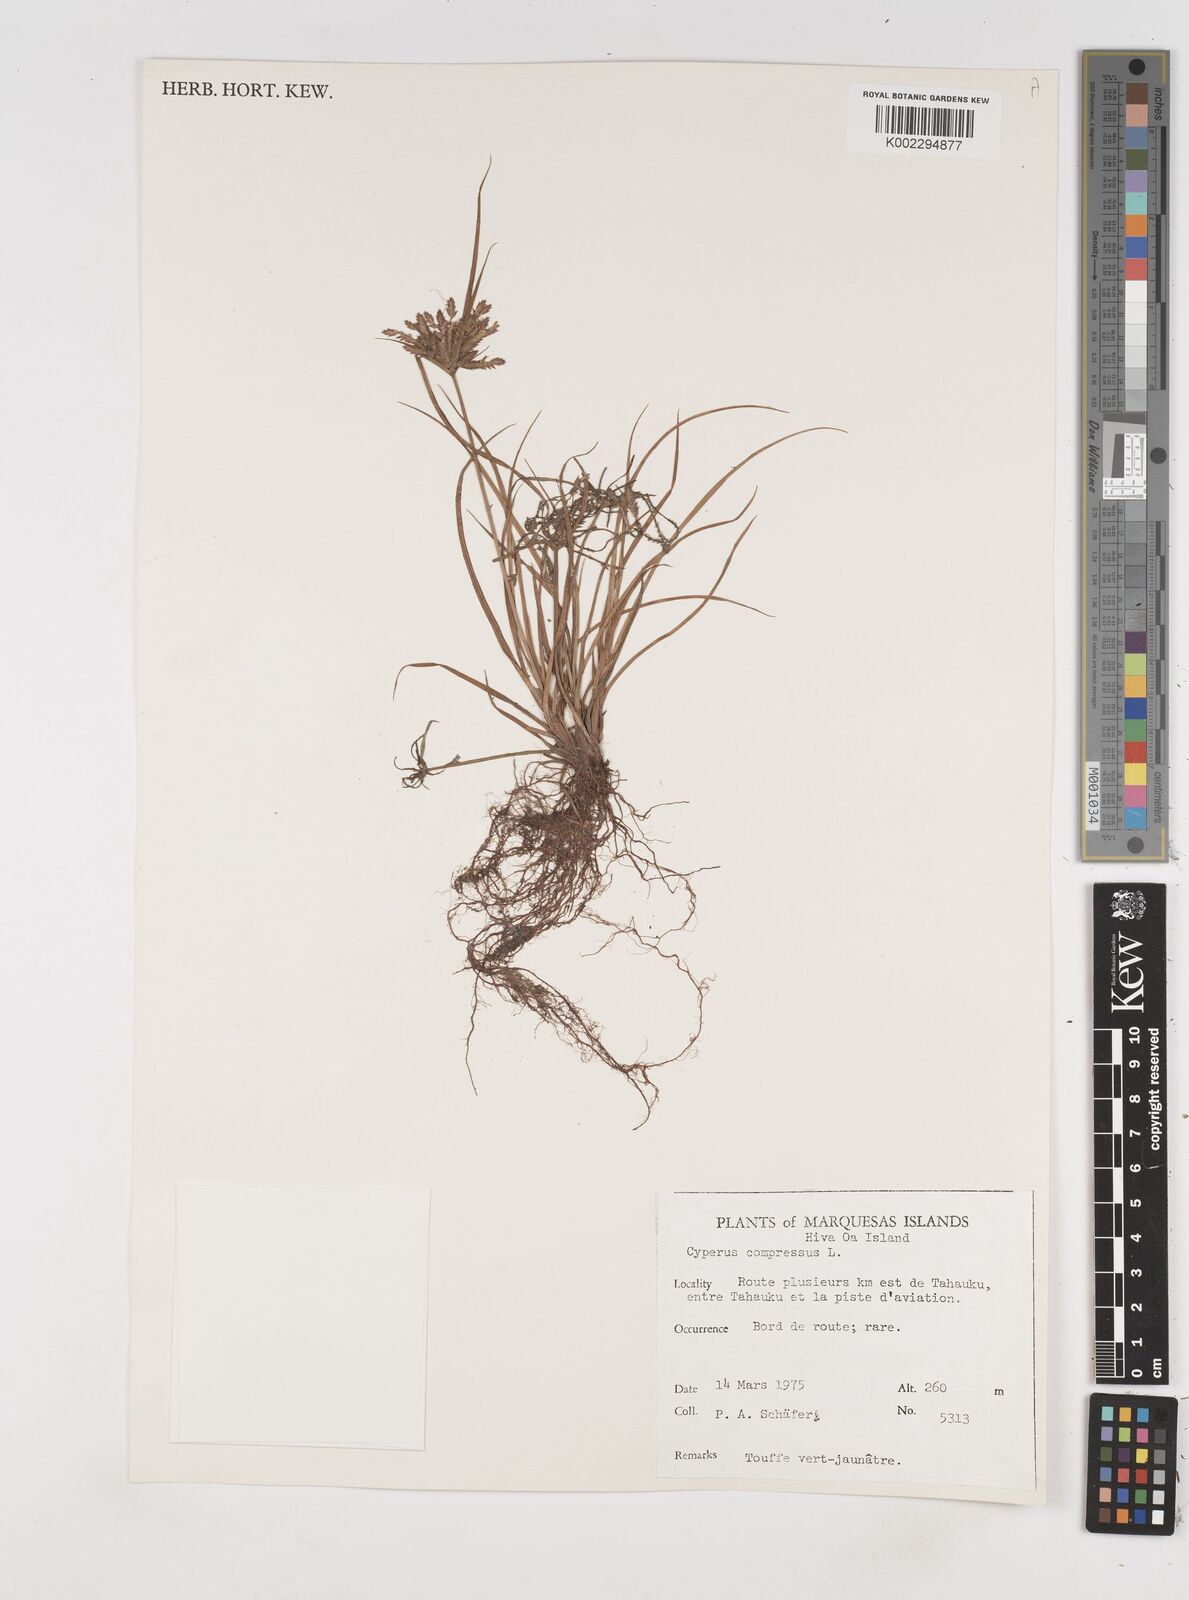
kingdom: Plantae
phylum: Tracheophyta
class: Liliopsida
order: Poales
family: Cyperaceae
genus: Cyperus
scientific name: Cyperus compressus
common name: Poorland flatsedge
